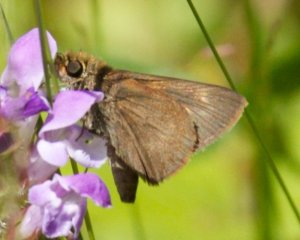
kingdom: Animalia
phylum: Arthropoda
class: Insecta
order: Lepidoptera
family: Hesperiidae
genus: Polites
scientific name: Polites themistocles
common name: Tawny-edged Skipper
